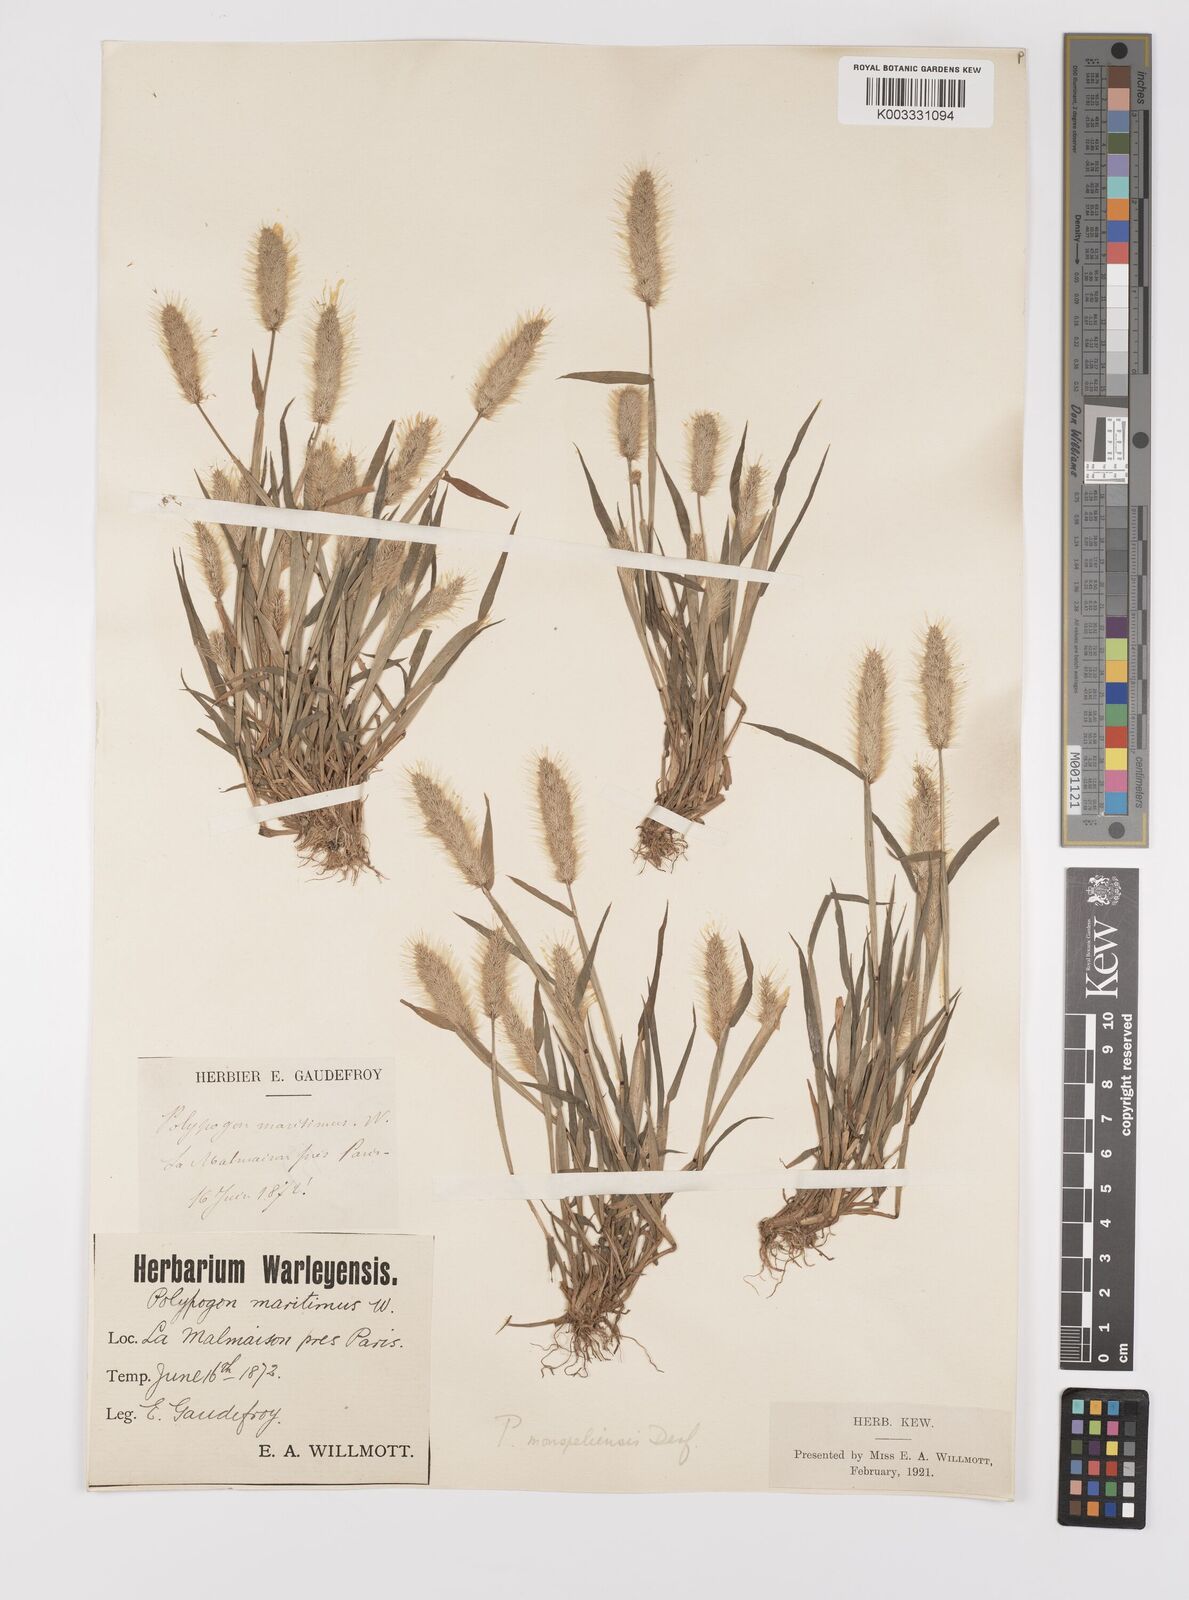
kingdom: Plantae
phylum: Tracheophyta
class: Liliopsida
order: Poales
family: Poaceae
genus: Polypogon
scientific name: Polypogon monspeliensis
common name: Annual rabbitsfoot grass
